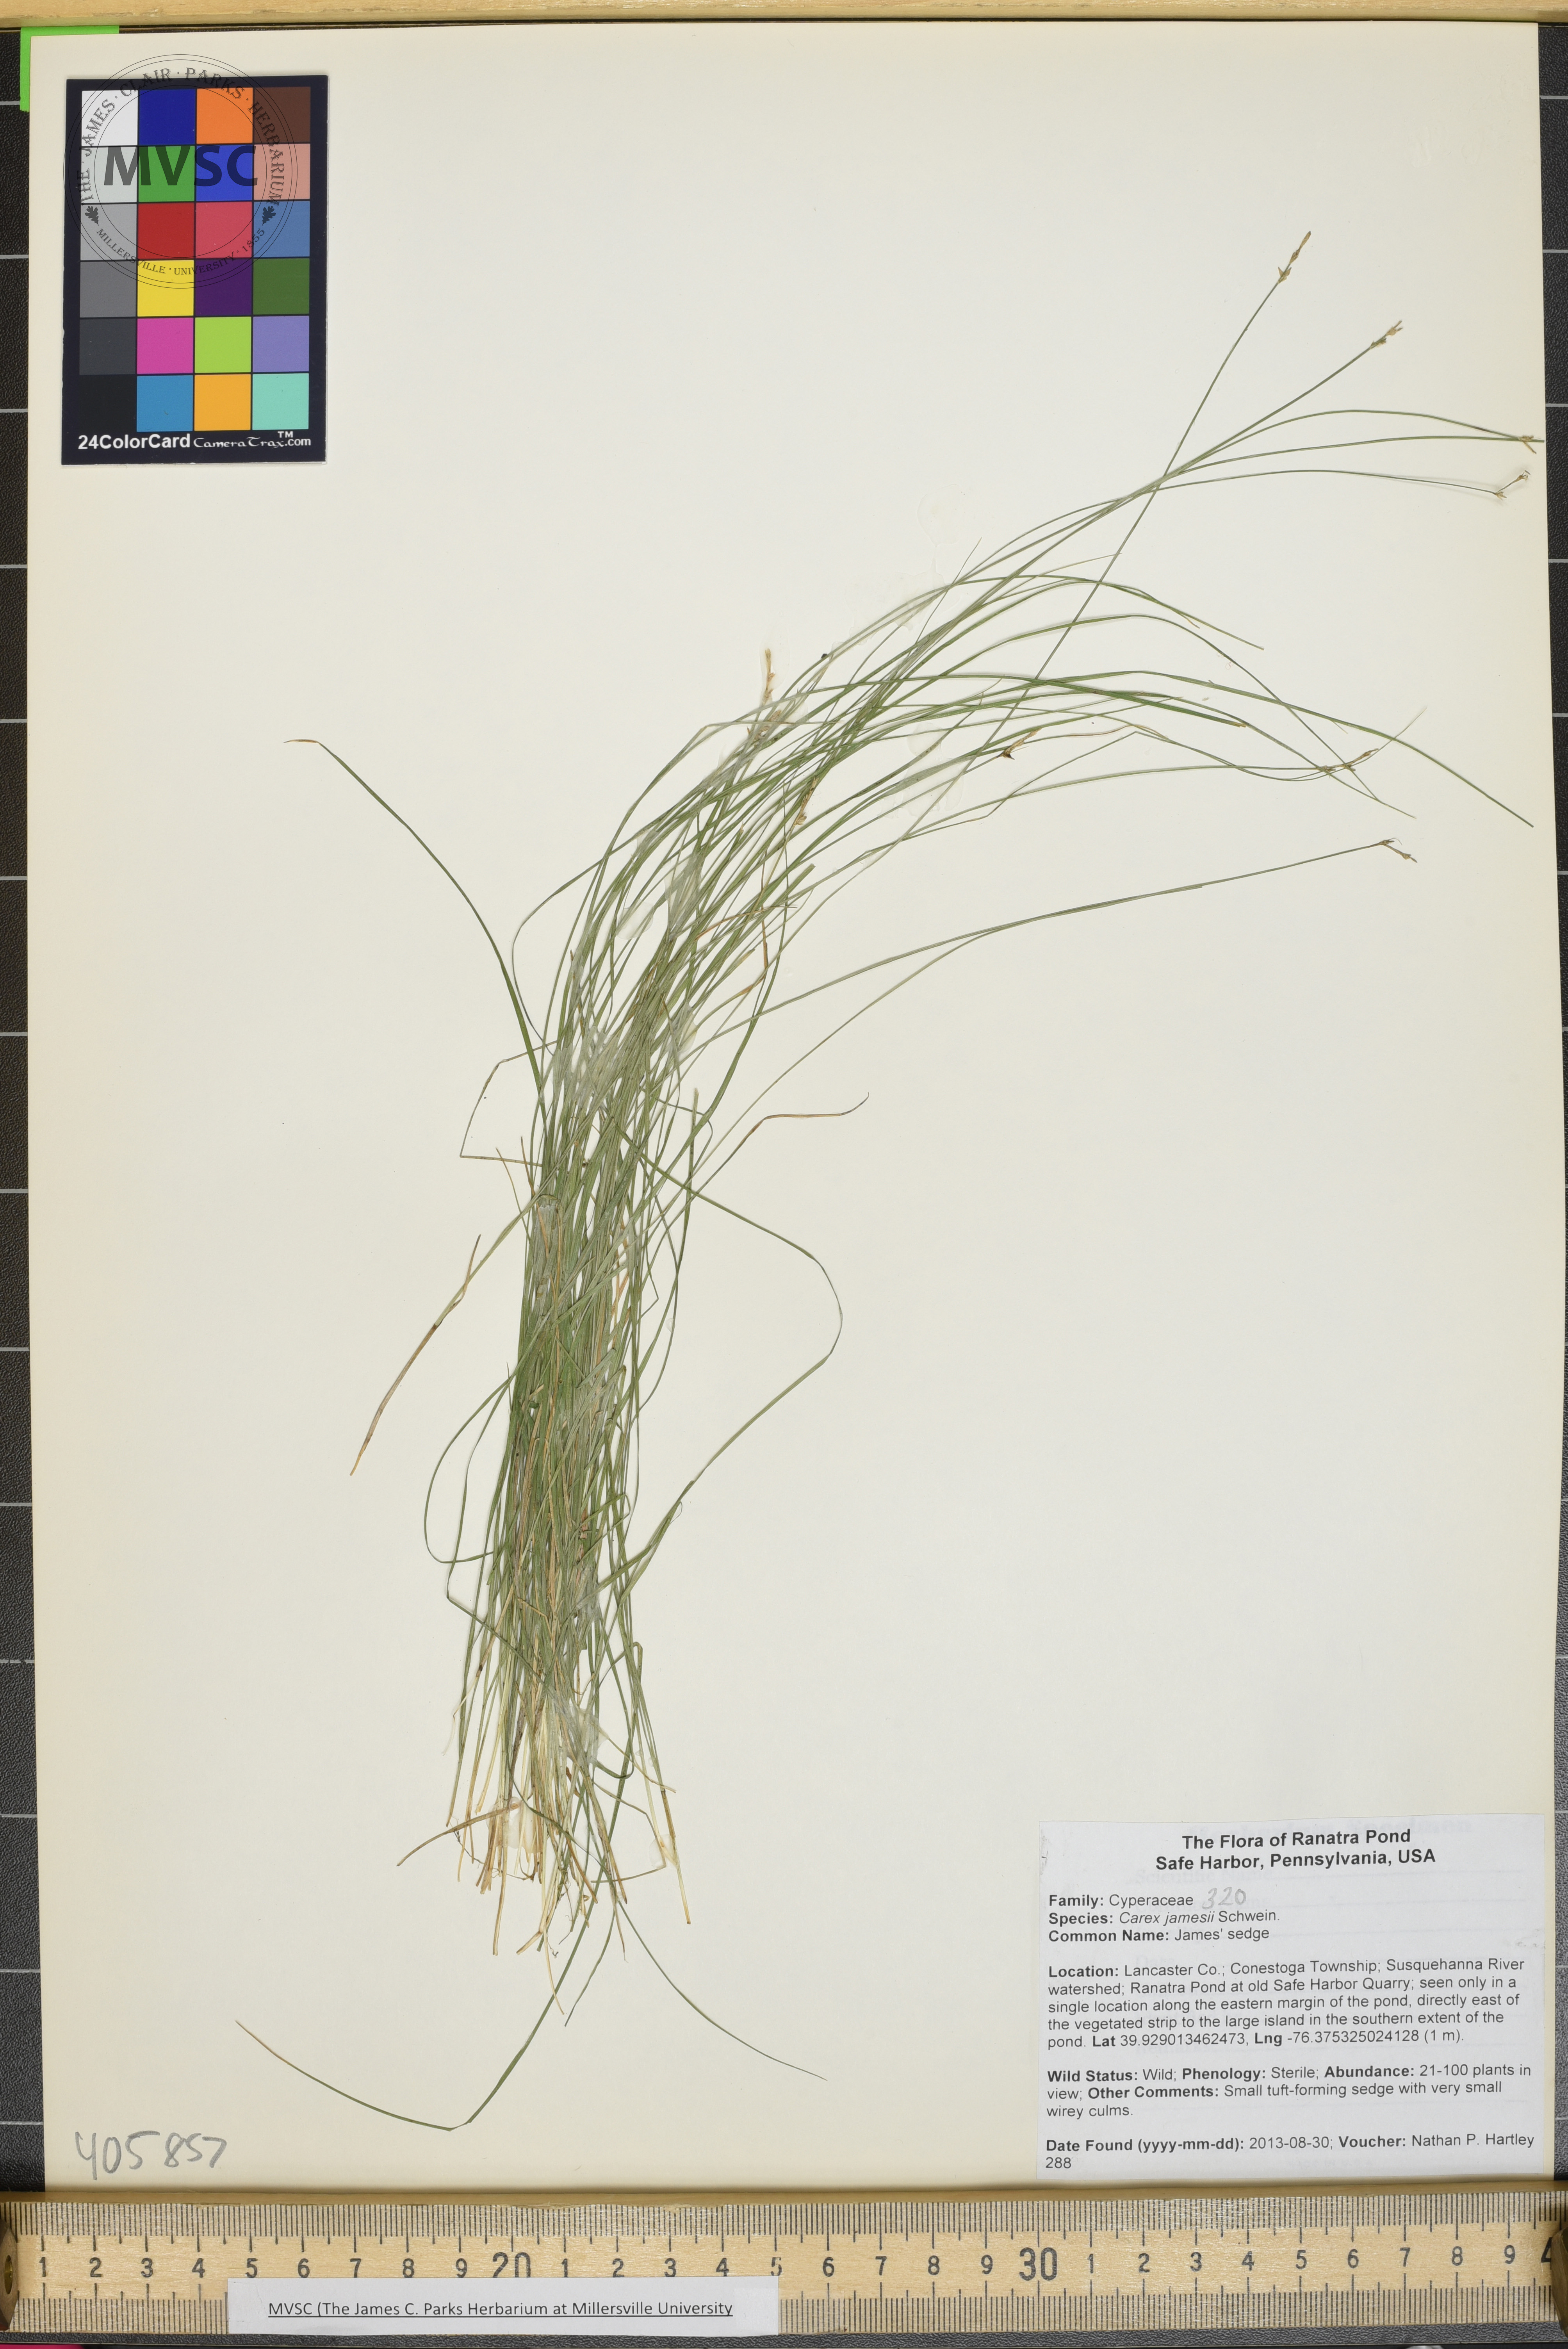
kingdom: Plantae
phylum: Tracheophyta
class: Liliopsida
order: Poales
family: Cyperaceae
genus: Carex
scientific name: Carex atlantica
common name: bog sedge
